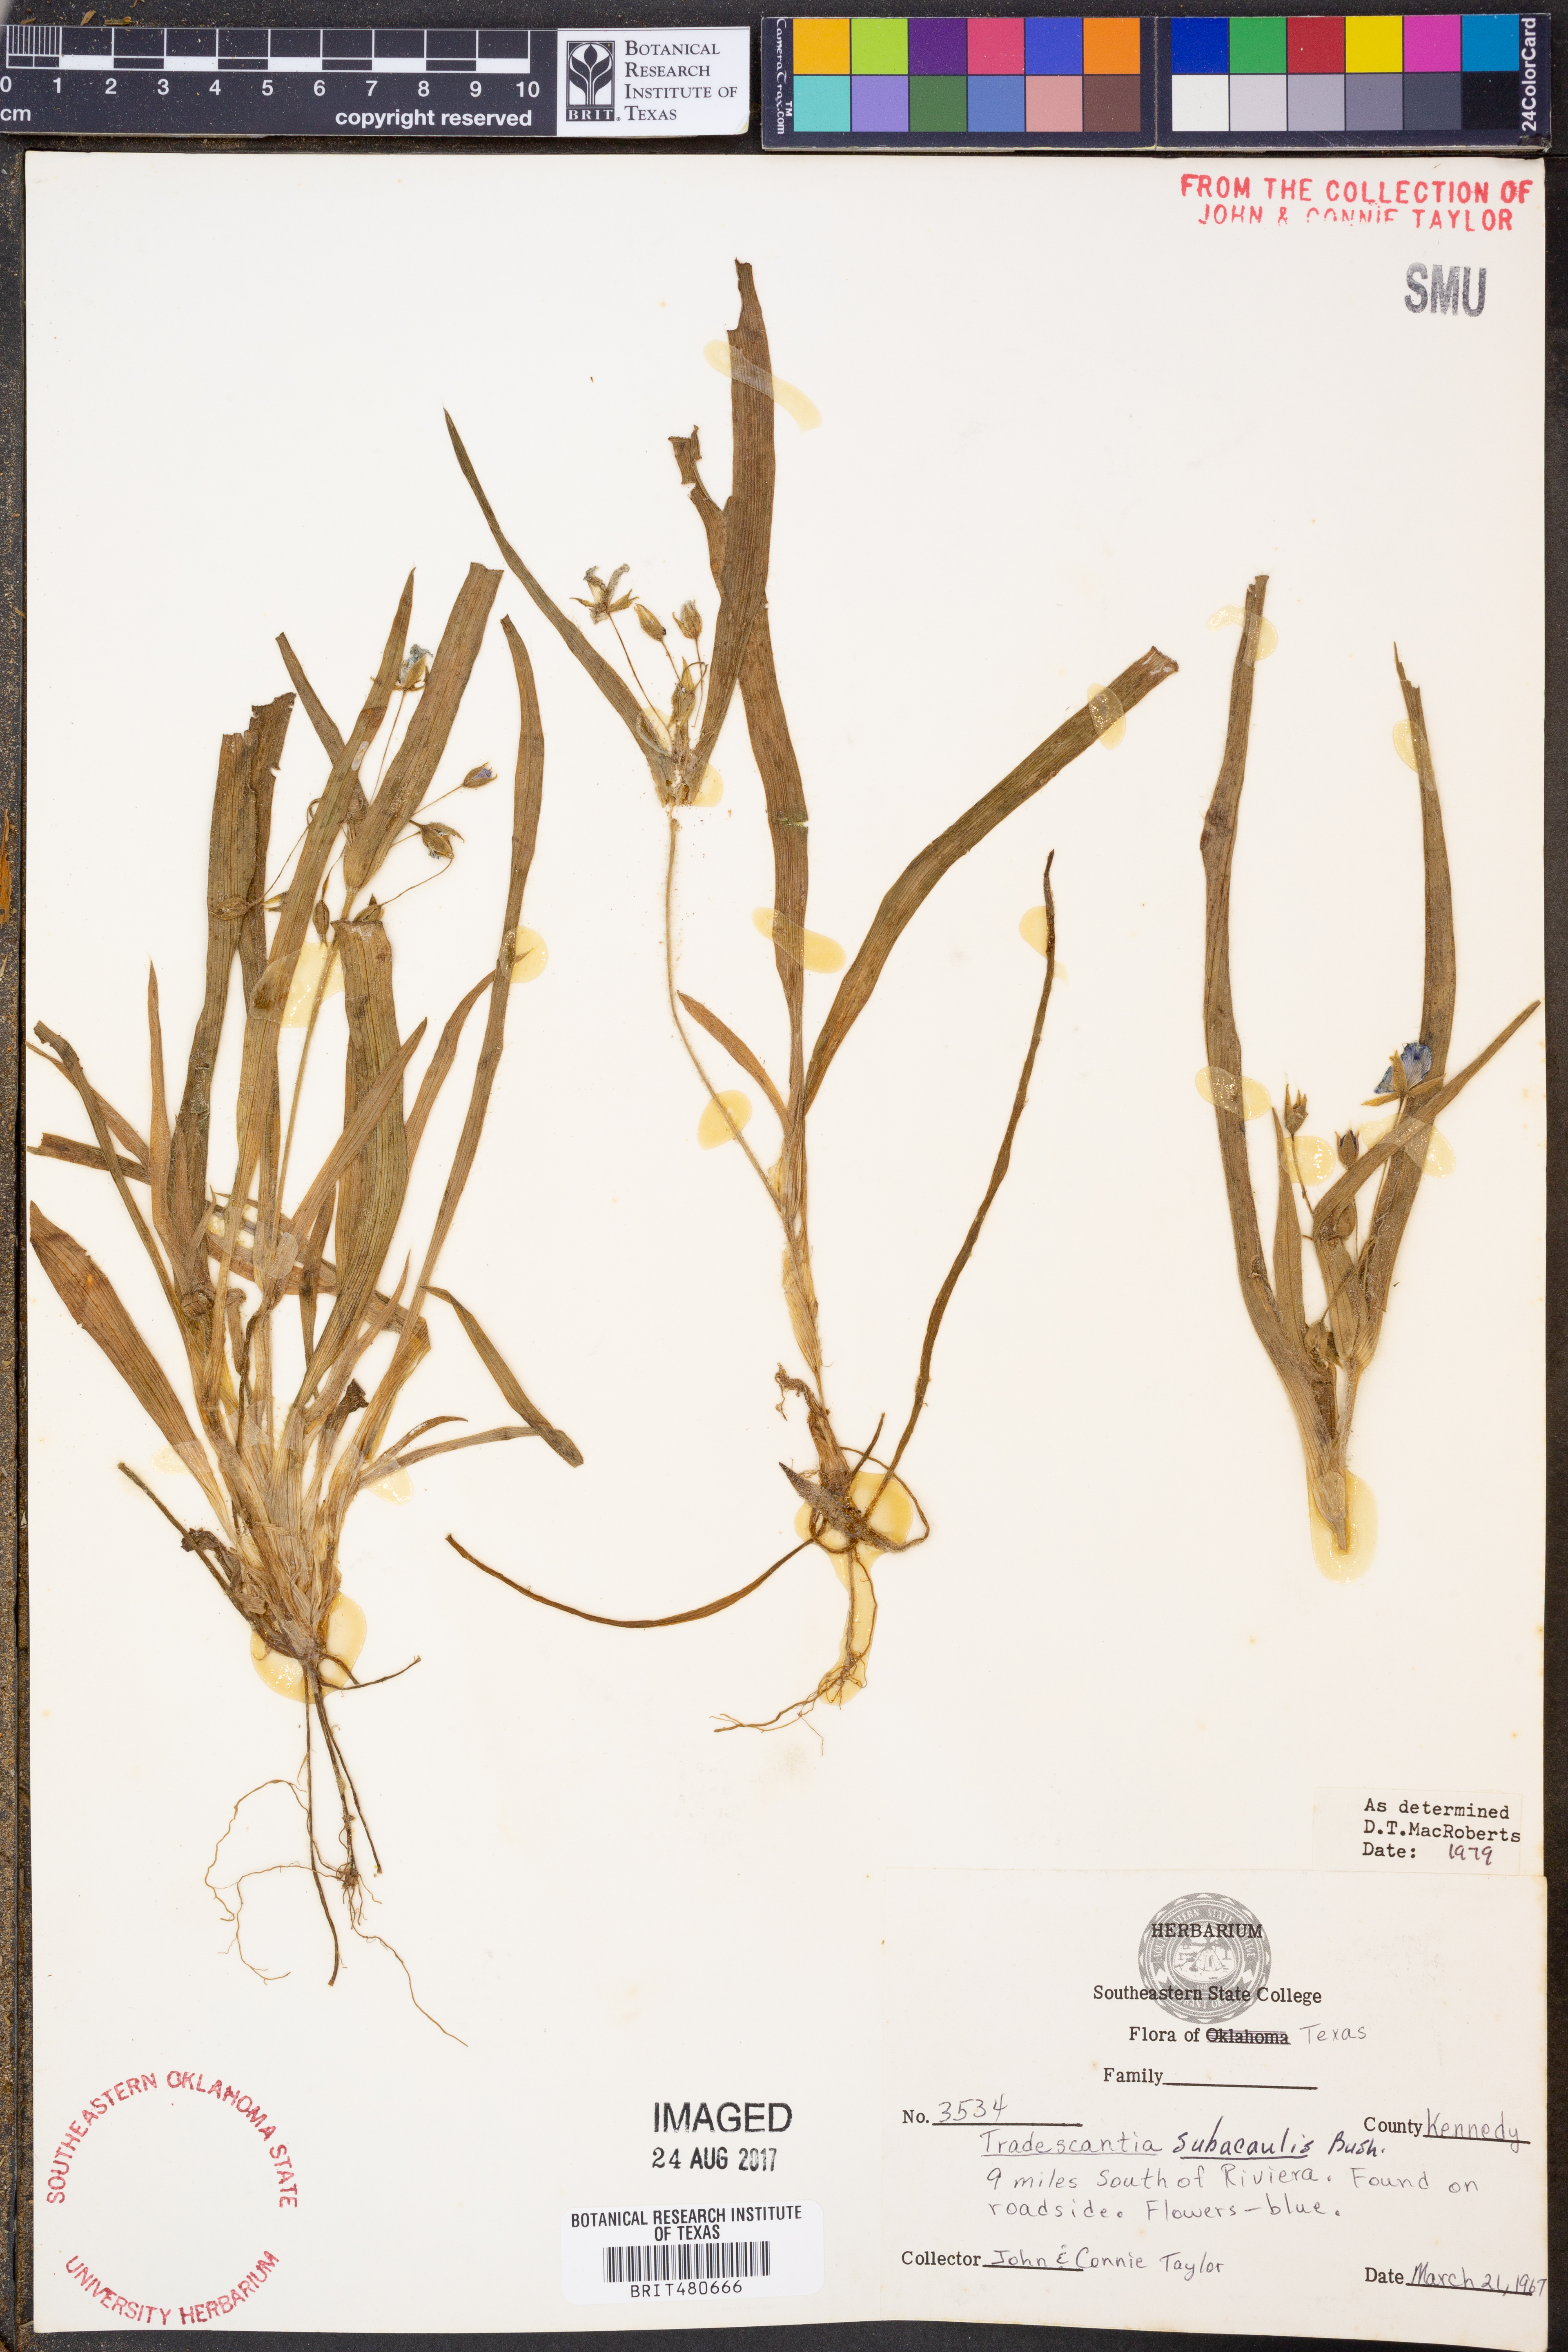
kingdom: Plantae
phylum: Tracheophyta
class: Liliopsida
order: Commelinales
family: Commelinaceae
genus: Tradescantia
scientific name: Tradescantia subacaulis
